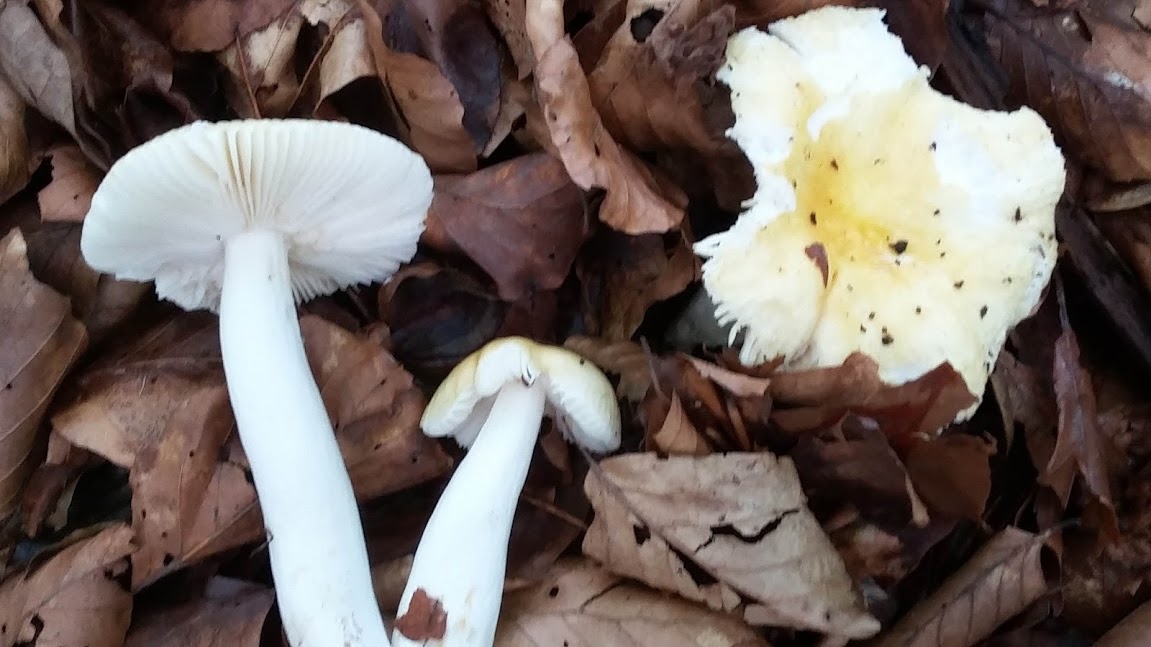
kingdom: Fungi
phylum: Basidiomycota
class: Agaricomycetes
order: Russulales
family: Russulaceae
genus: Russula
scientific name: Russula
